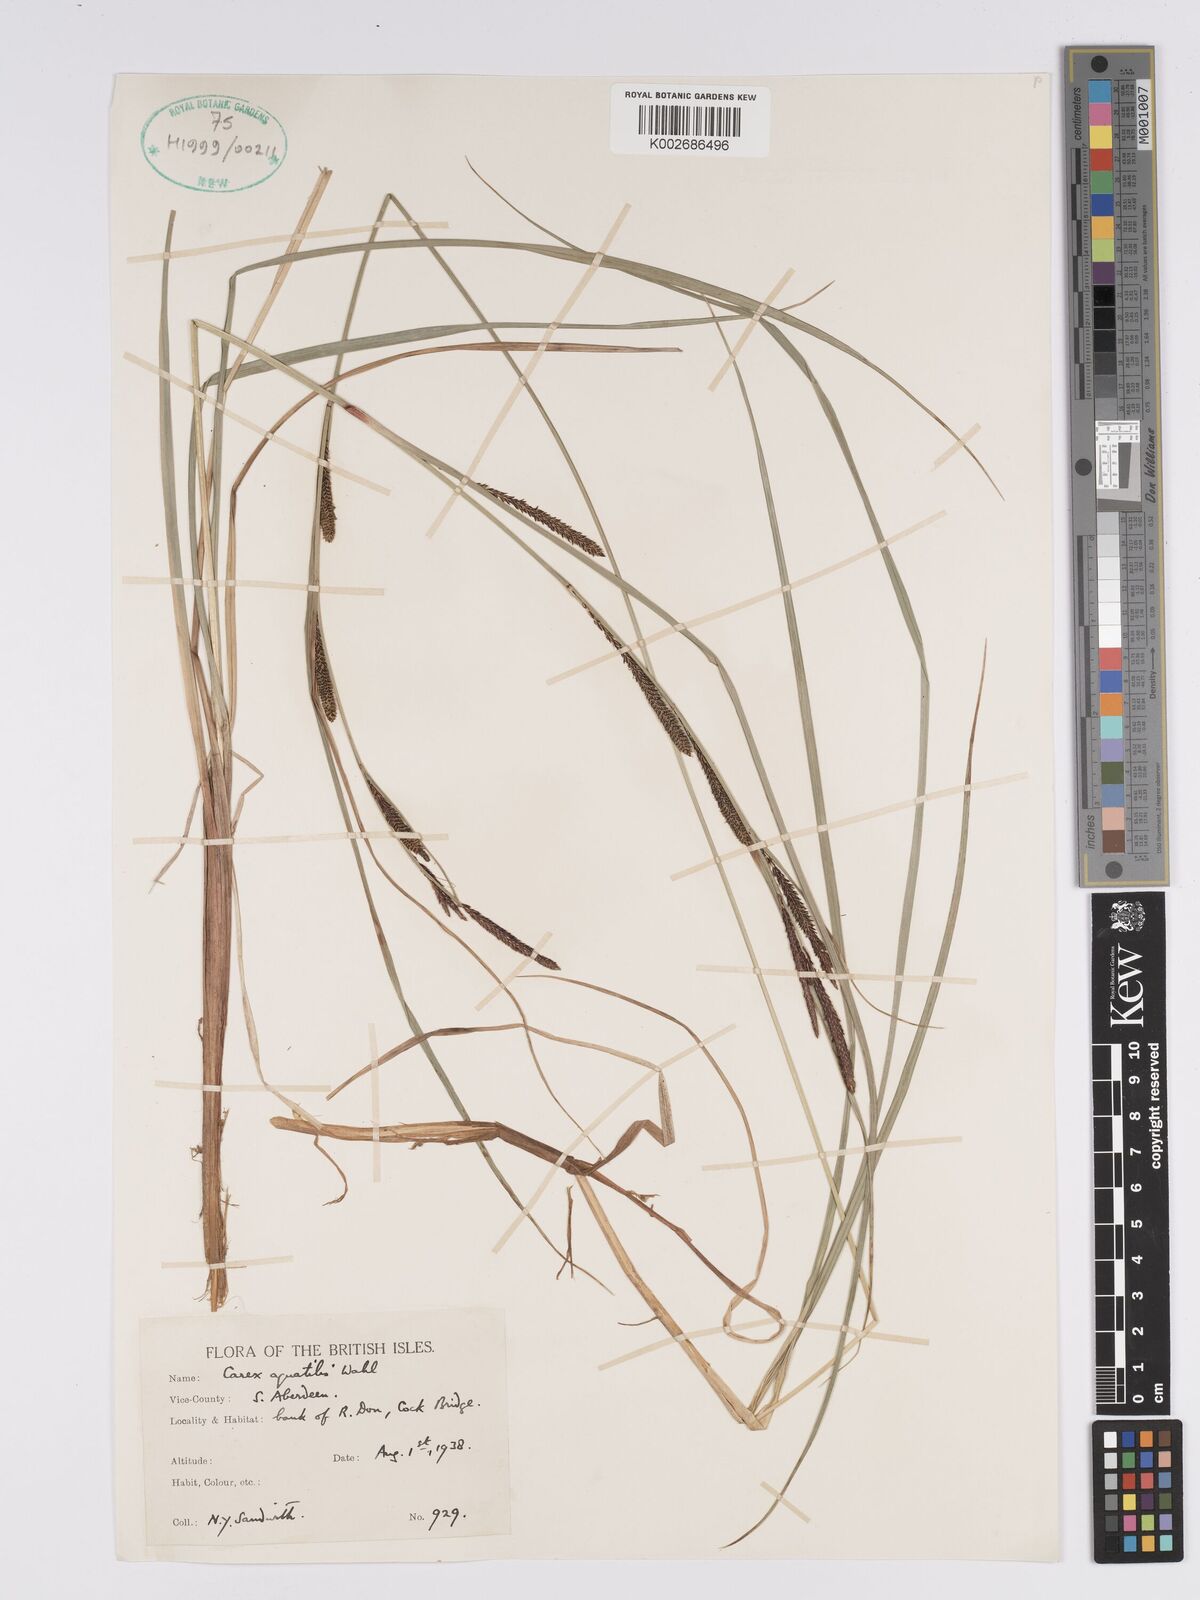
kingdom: Plantae
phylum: Tracheophyta
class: Liliopsida
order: Poales
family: Cyperaceae
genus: Carex
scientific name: Carex aquatilis
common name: Water sedge
